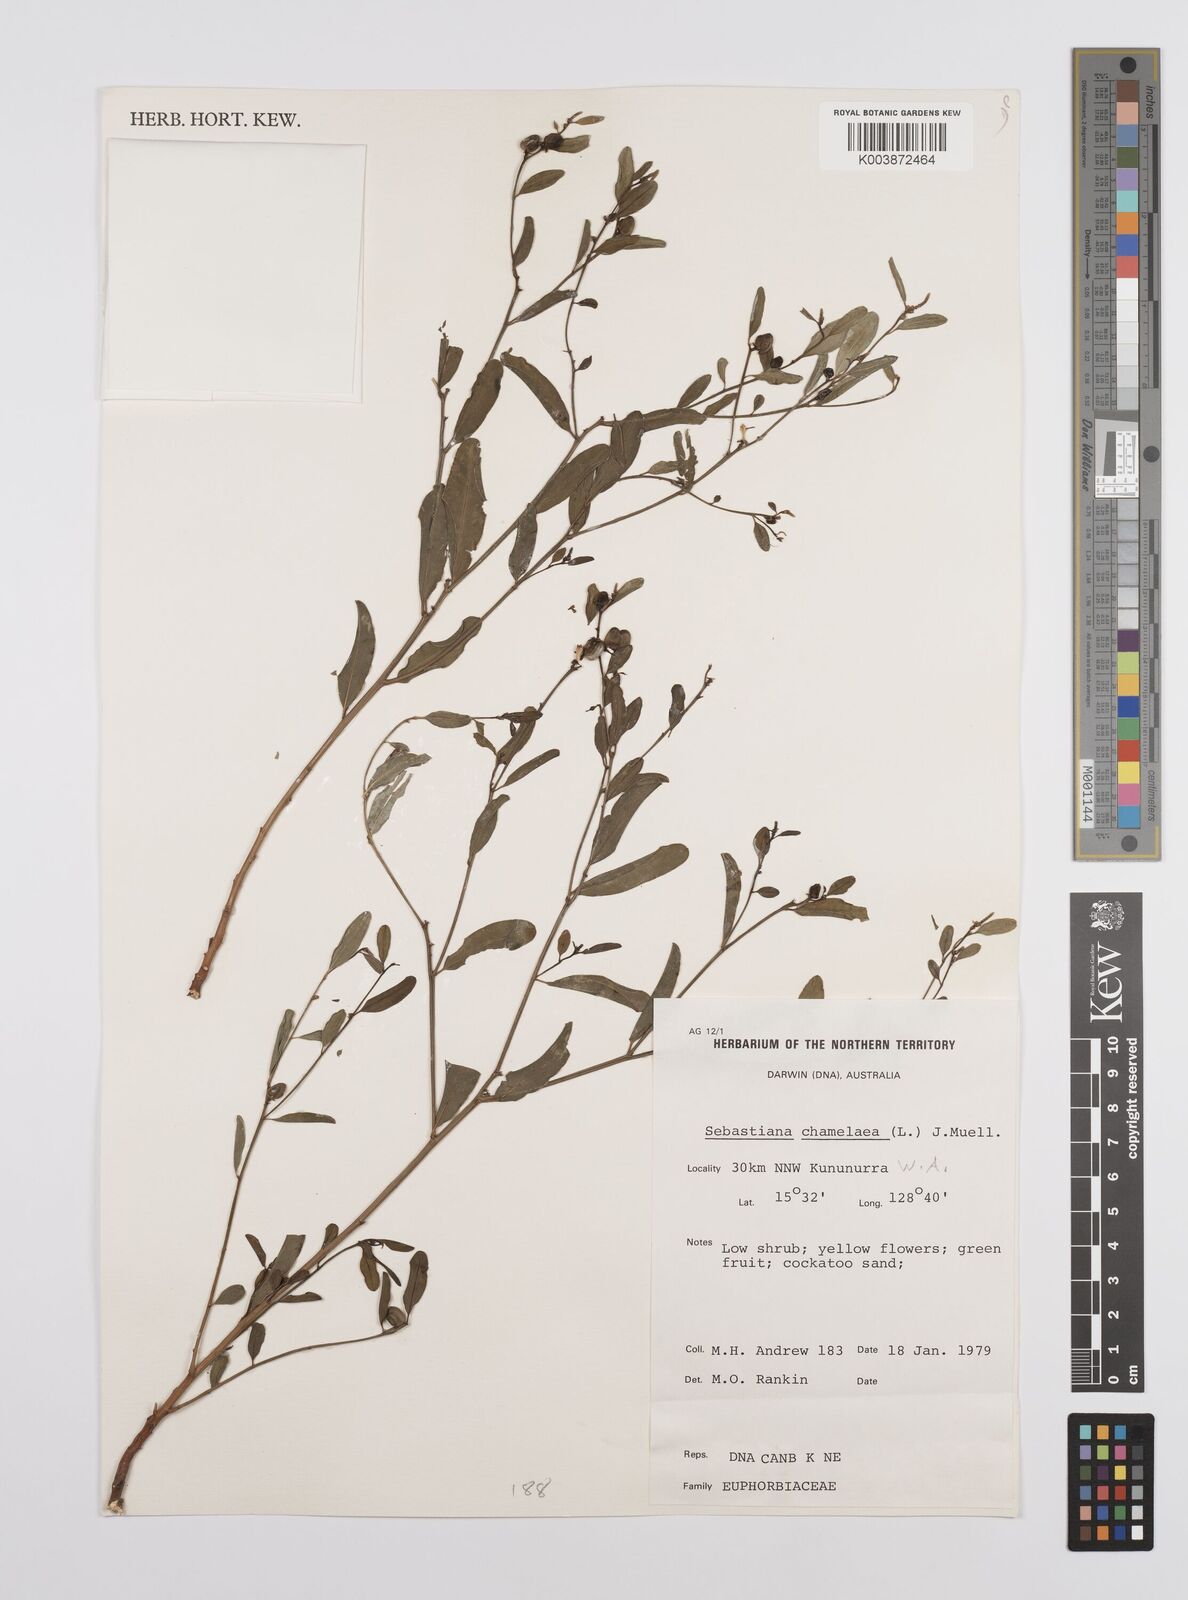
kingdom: Plantae
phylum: Tracheophyta
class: Magnoliopsida
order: Malpighiales
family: Euphorbiaceae
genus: Microstachys
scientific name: Microstachys chamaelea
